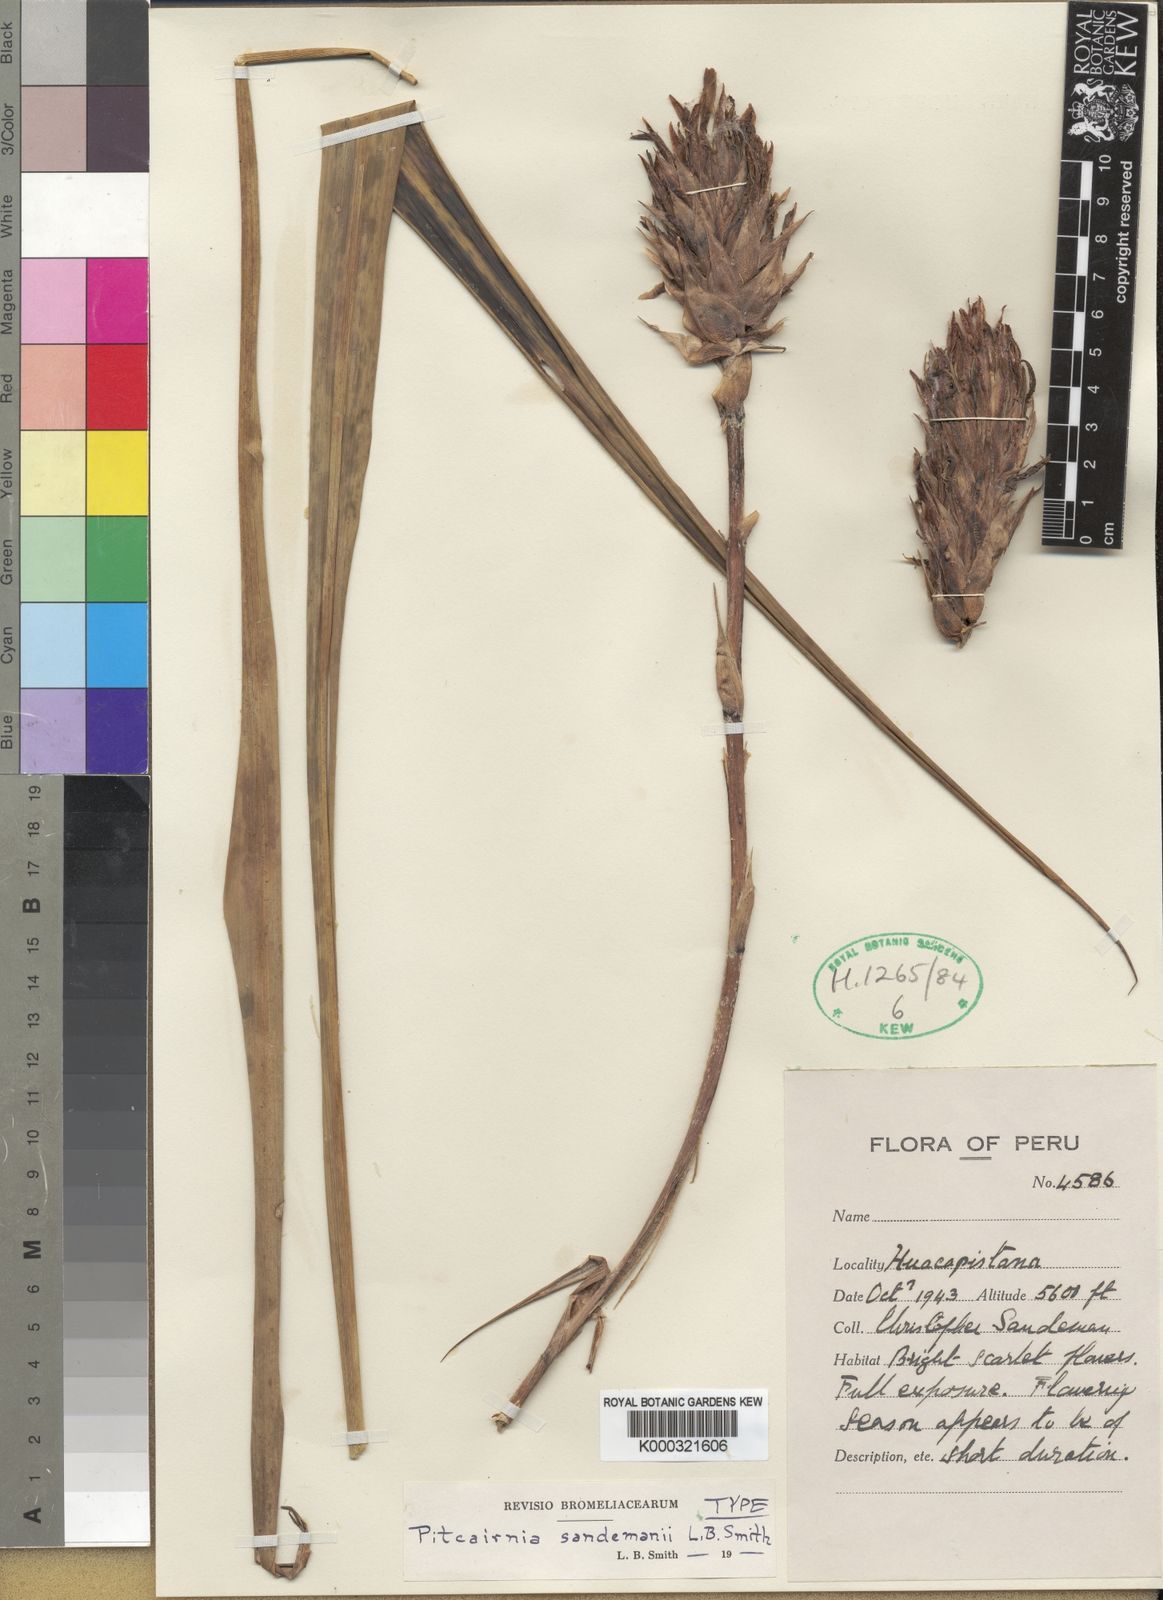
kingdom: Plantae
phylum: Tracheophyta
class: Liliopsida
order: Poales
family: Bromeliaceae
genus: Pitcairnia
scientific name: Pitcairnia sandemanii
